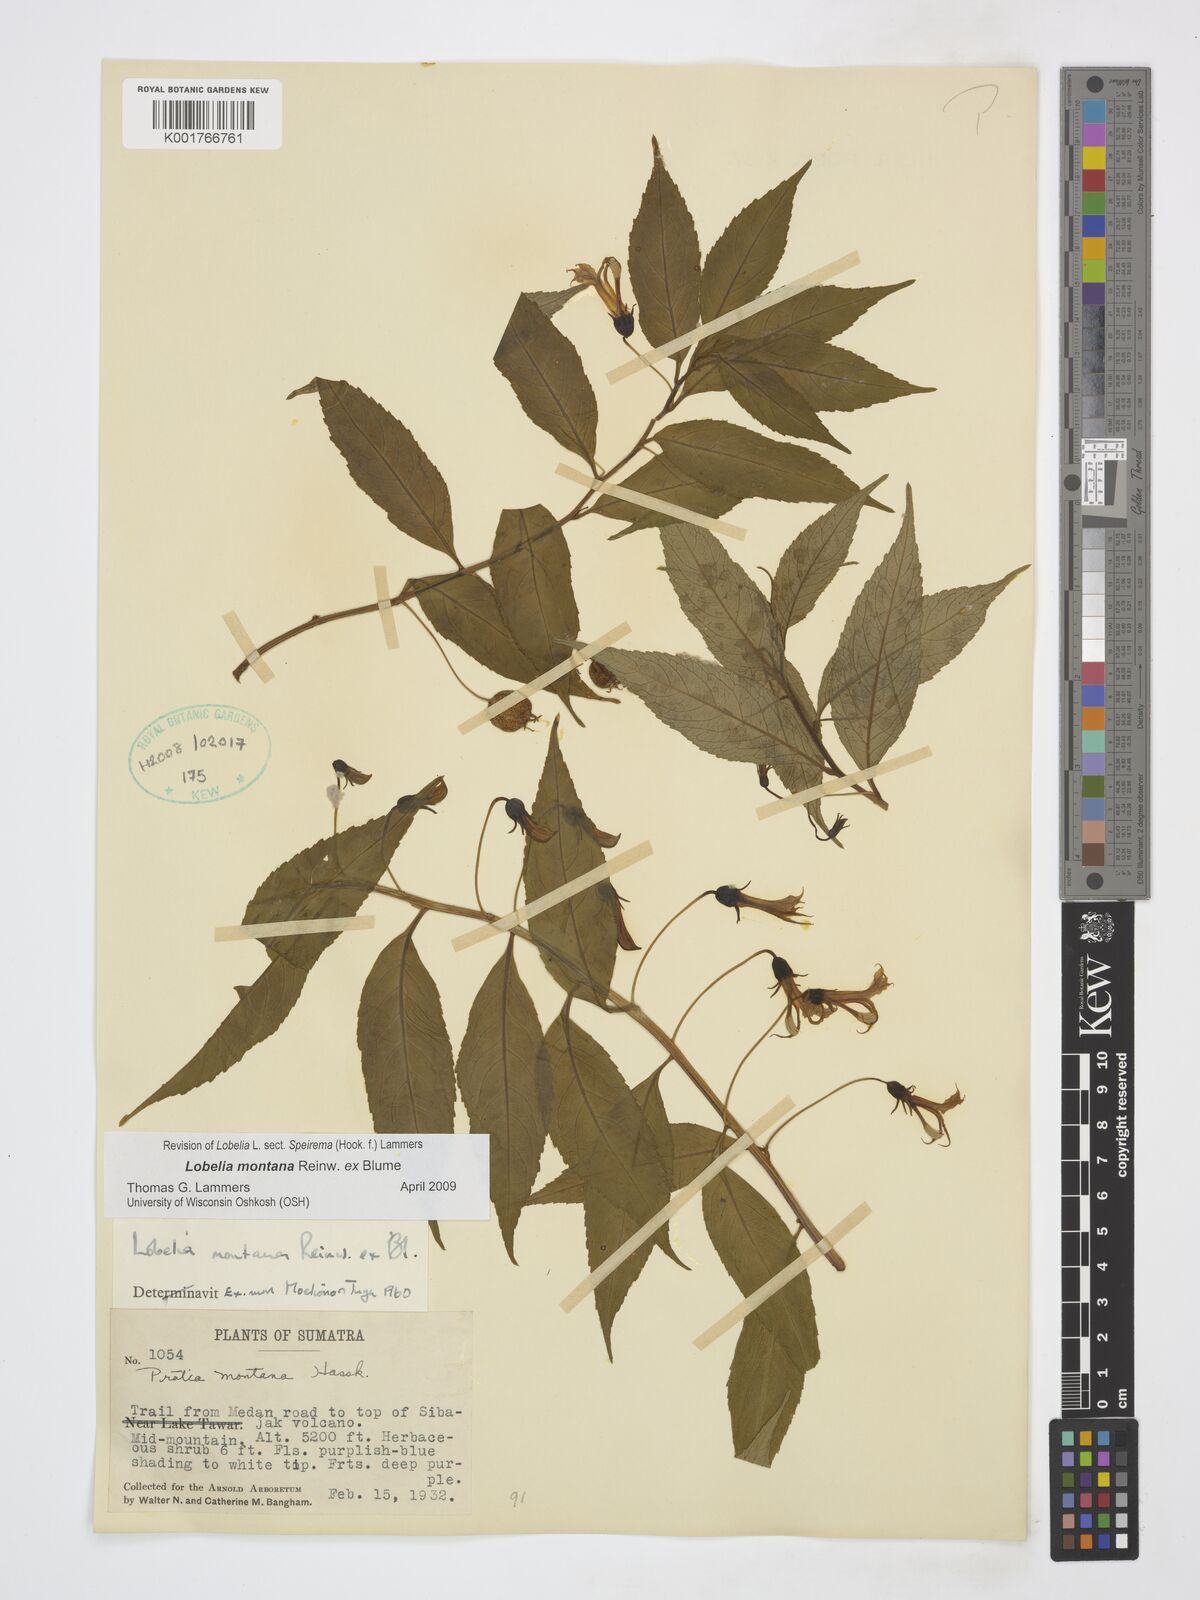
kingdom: Plantae
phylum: Tracheophyta
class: Magnoliopsida
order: Asterales
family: Campanulaceae
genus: Lobelia
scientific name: Lobelia montana
